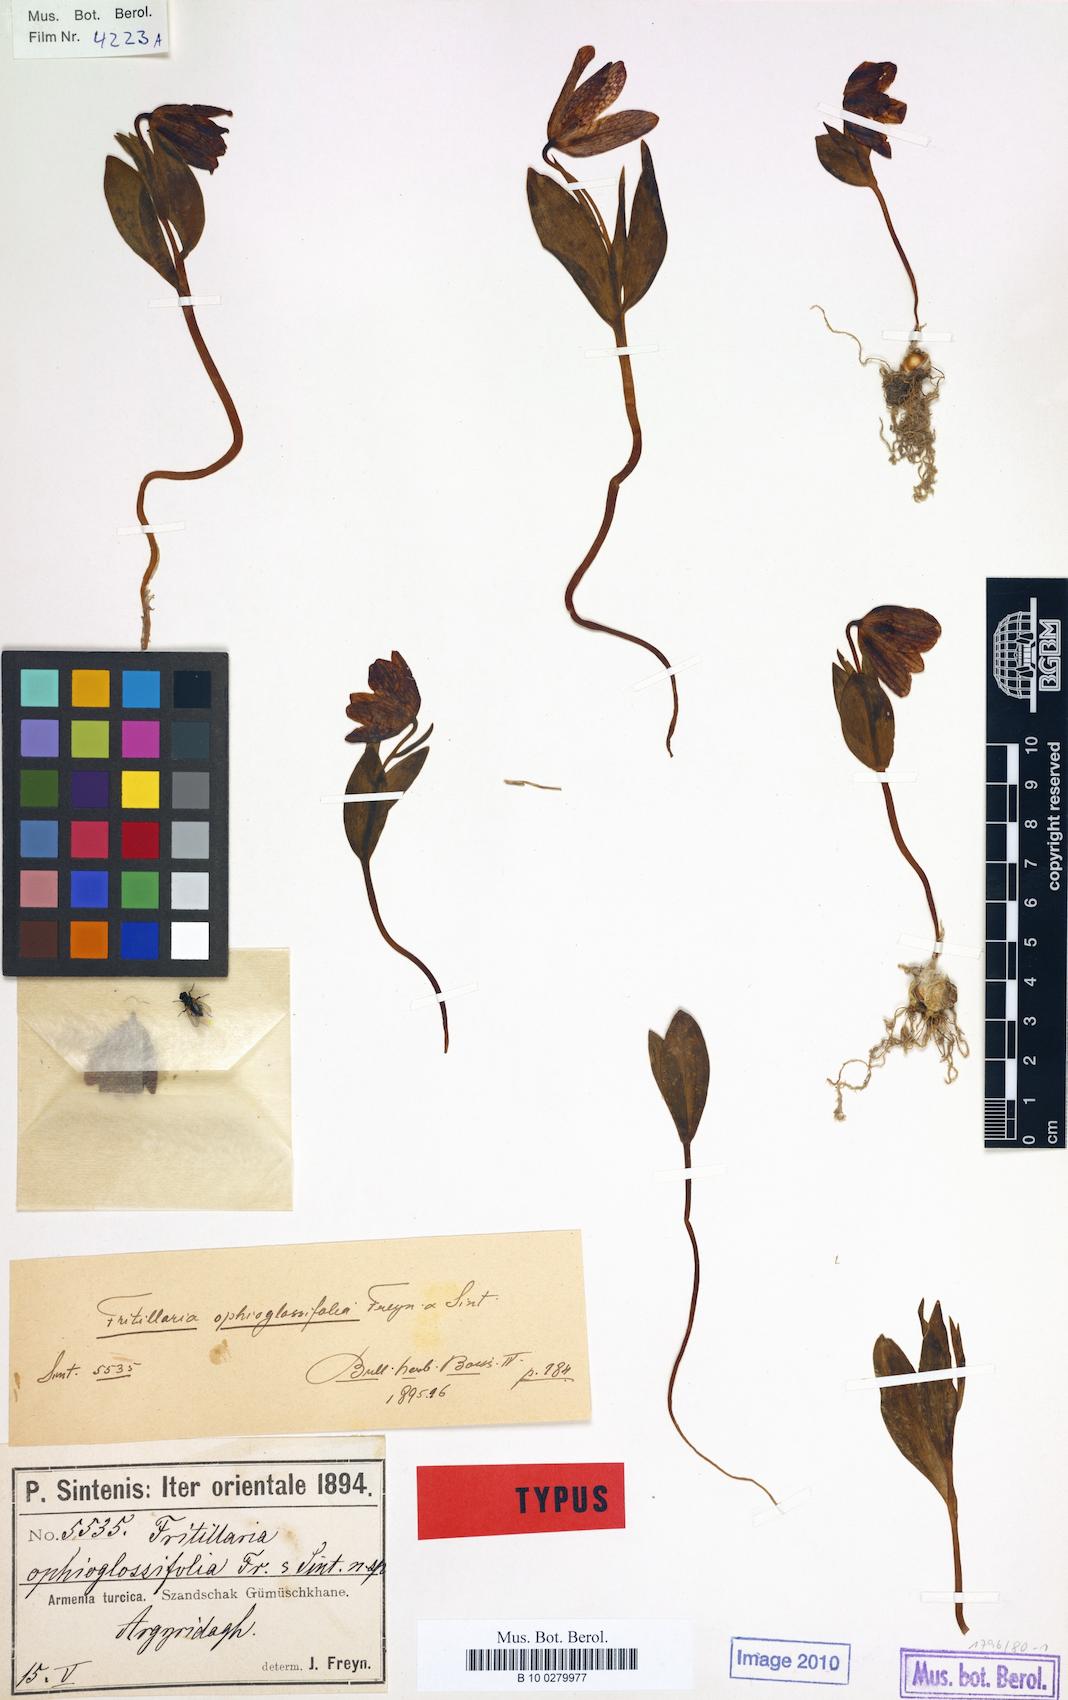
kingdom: Plantae
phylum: Tracheophyta
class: Liliopsida
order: Liliales
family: Liliaceae
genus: Fritillaria
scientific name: Fritillaria crassifolia
